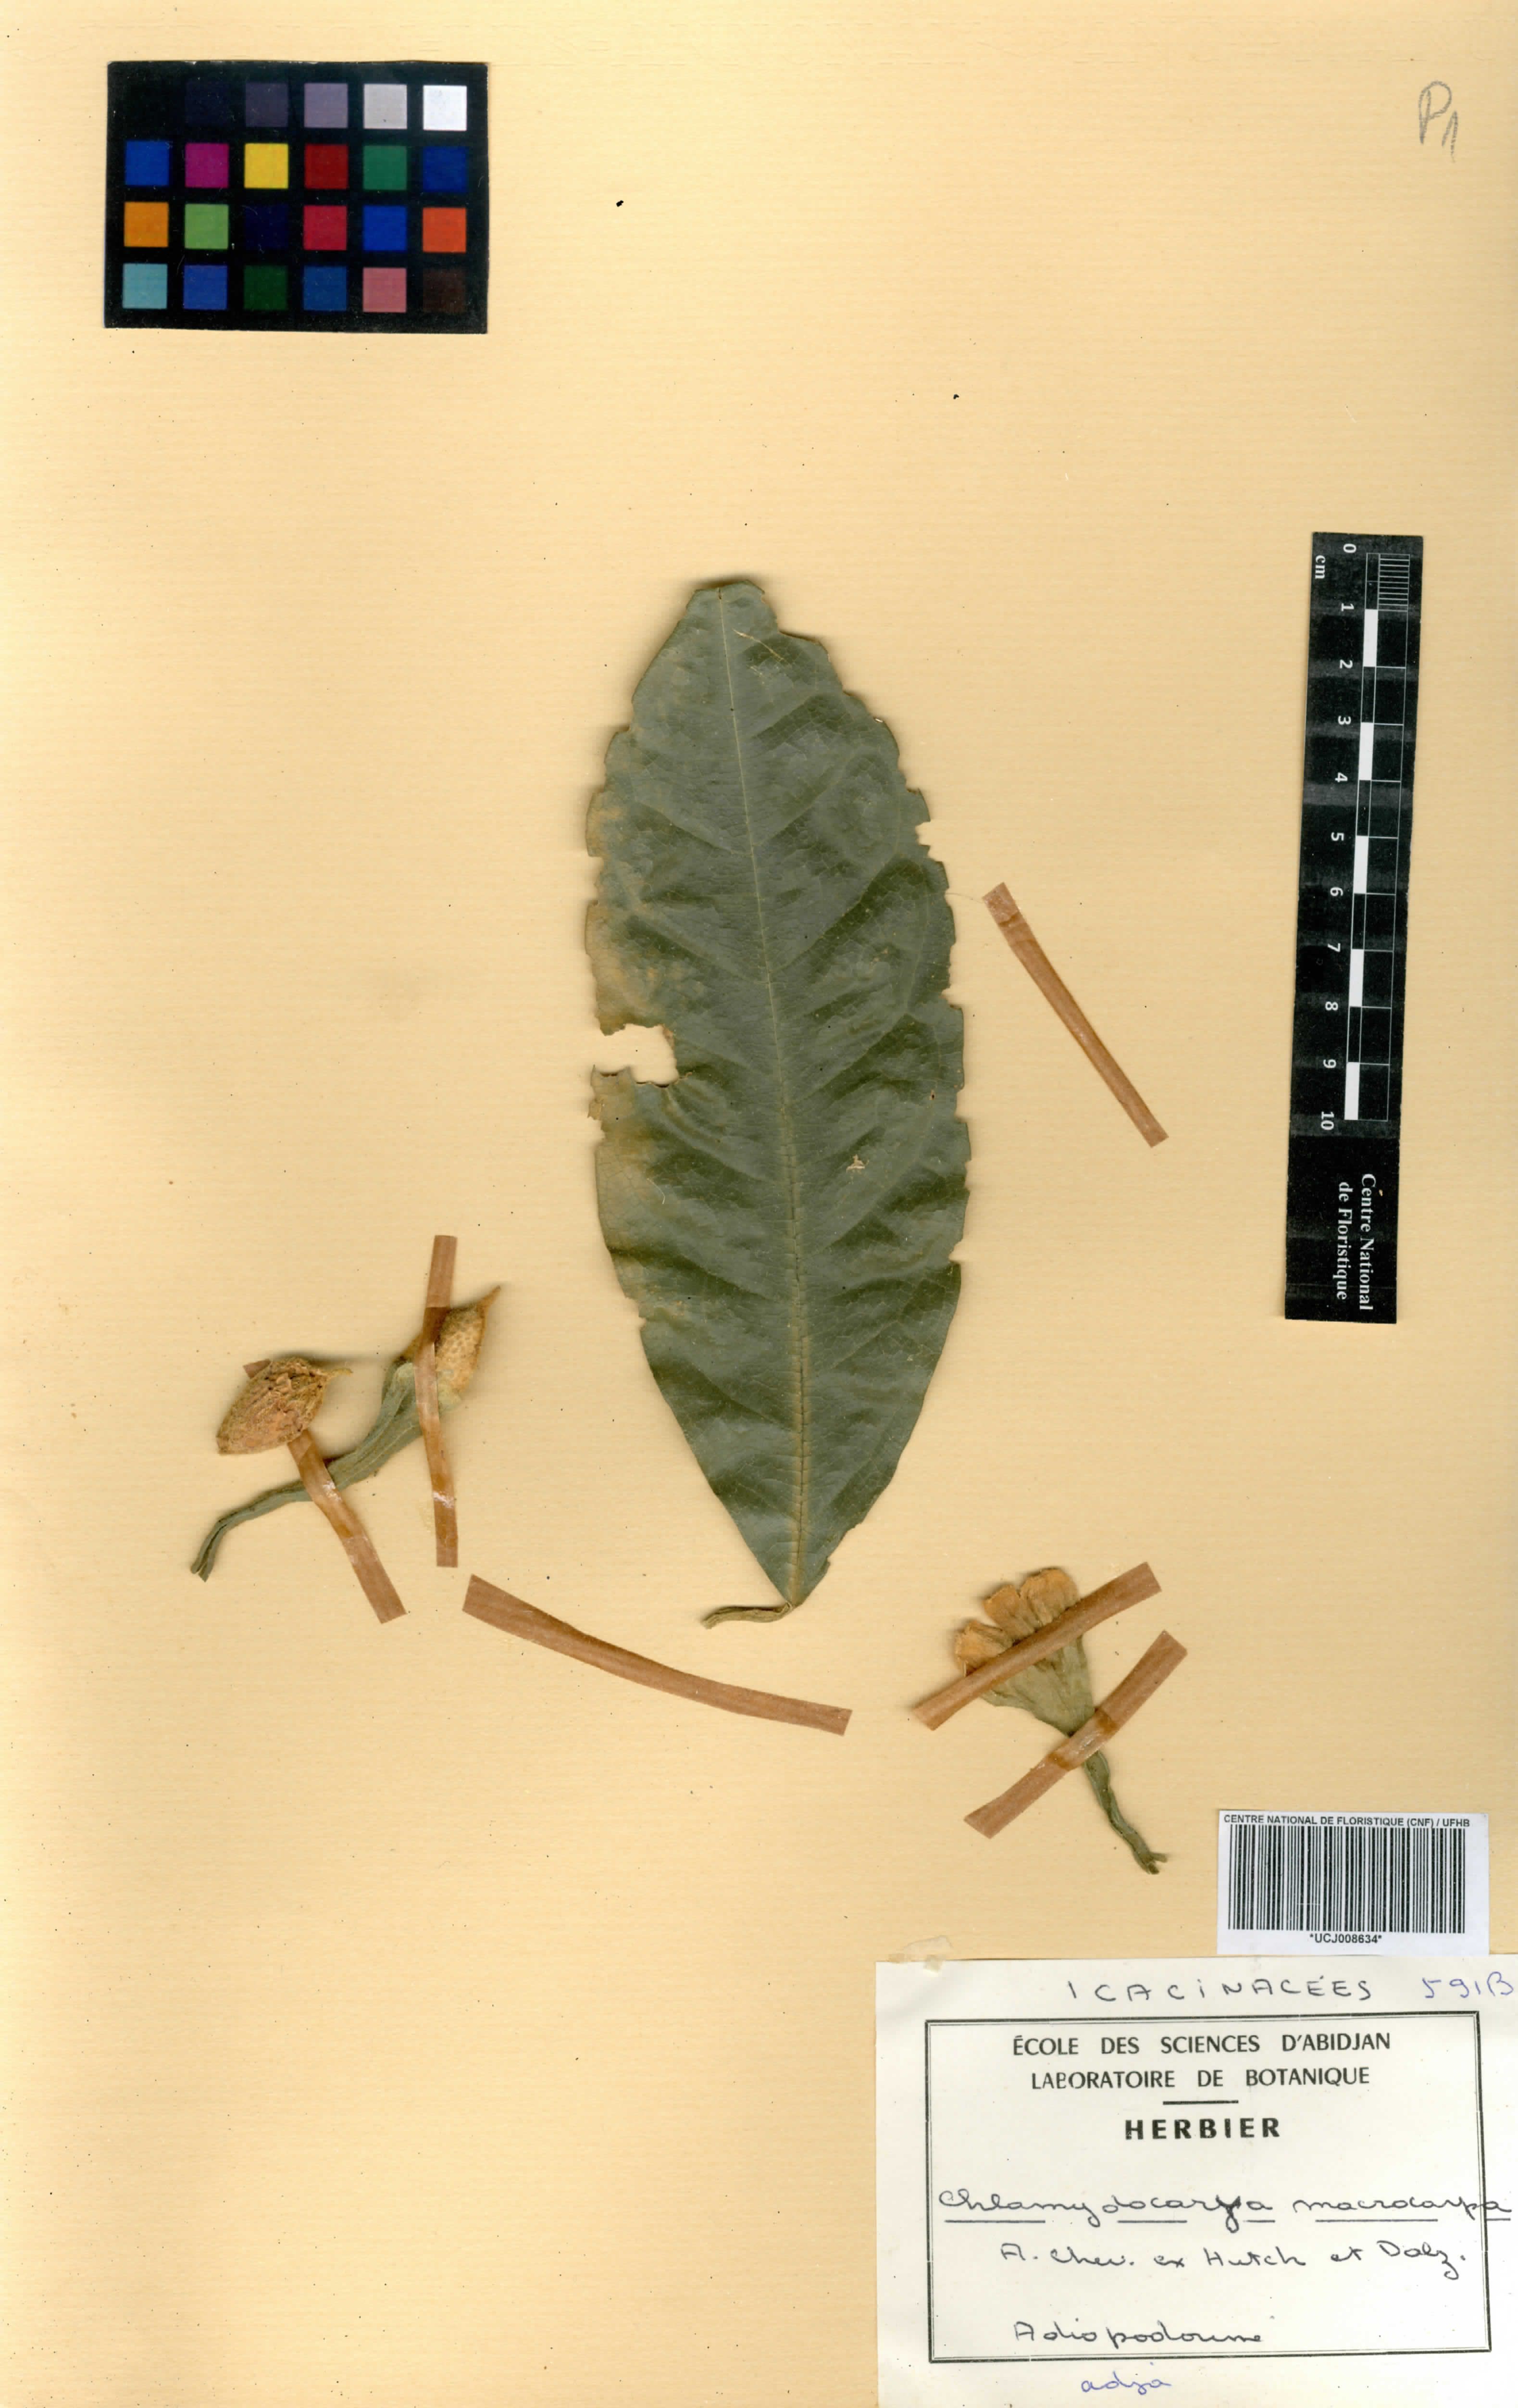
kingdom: Plantae
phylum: Tracheophyta
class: Magnoliopsida
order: Icacinales
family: Icacinaceae
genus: Pyrenacantha
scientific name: Pyrenacantha macrocarpa
